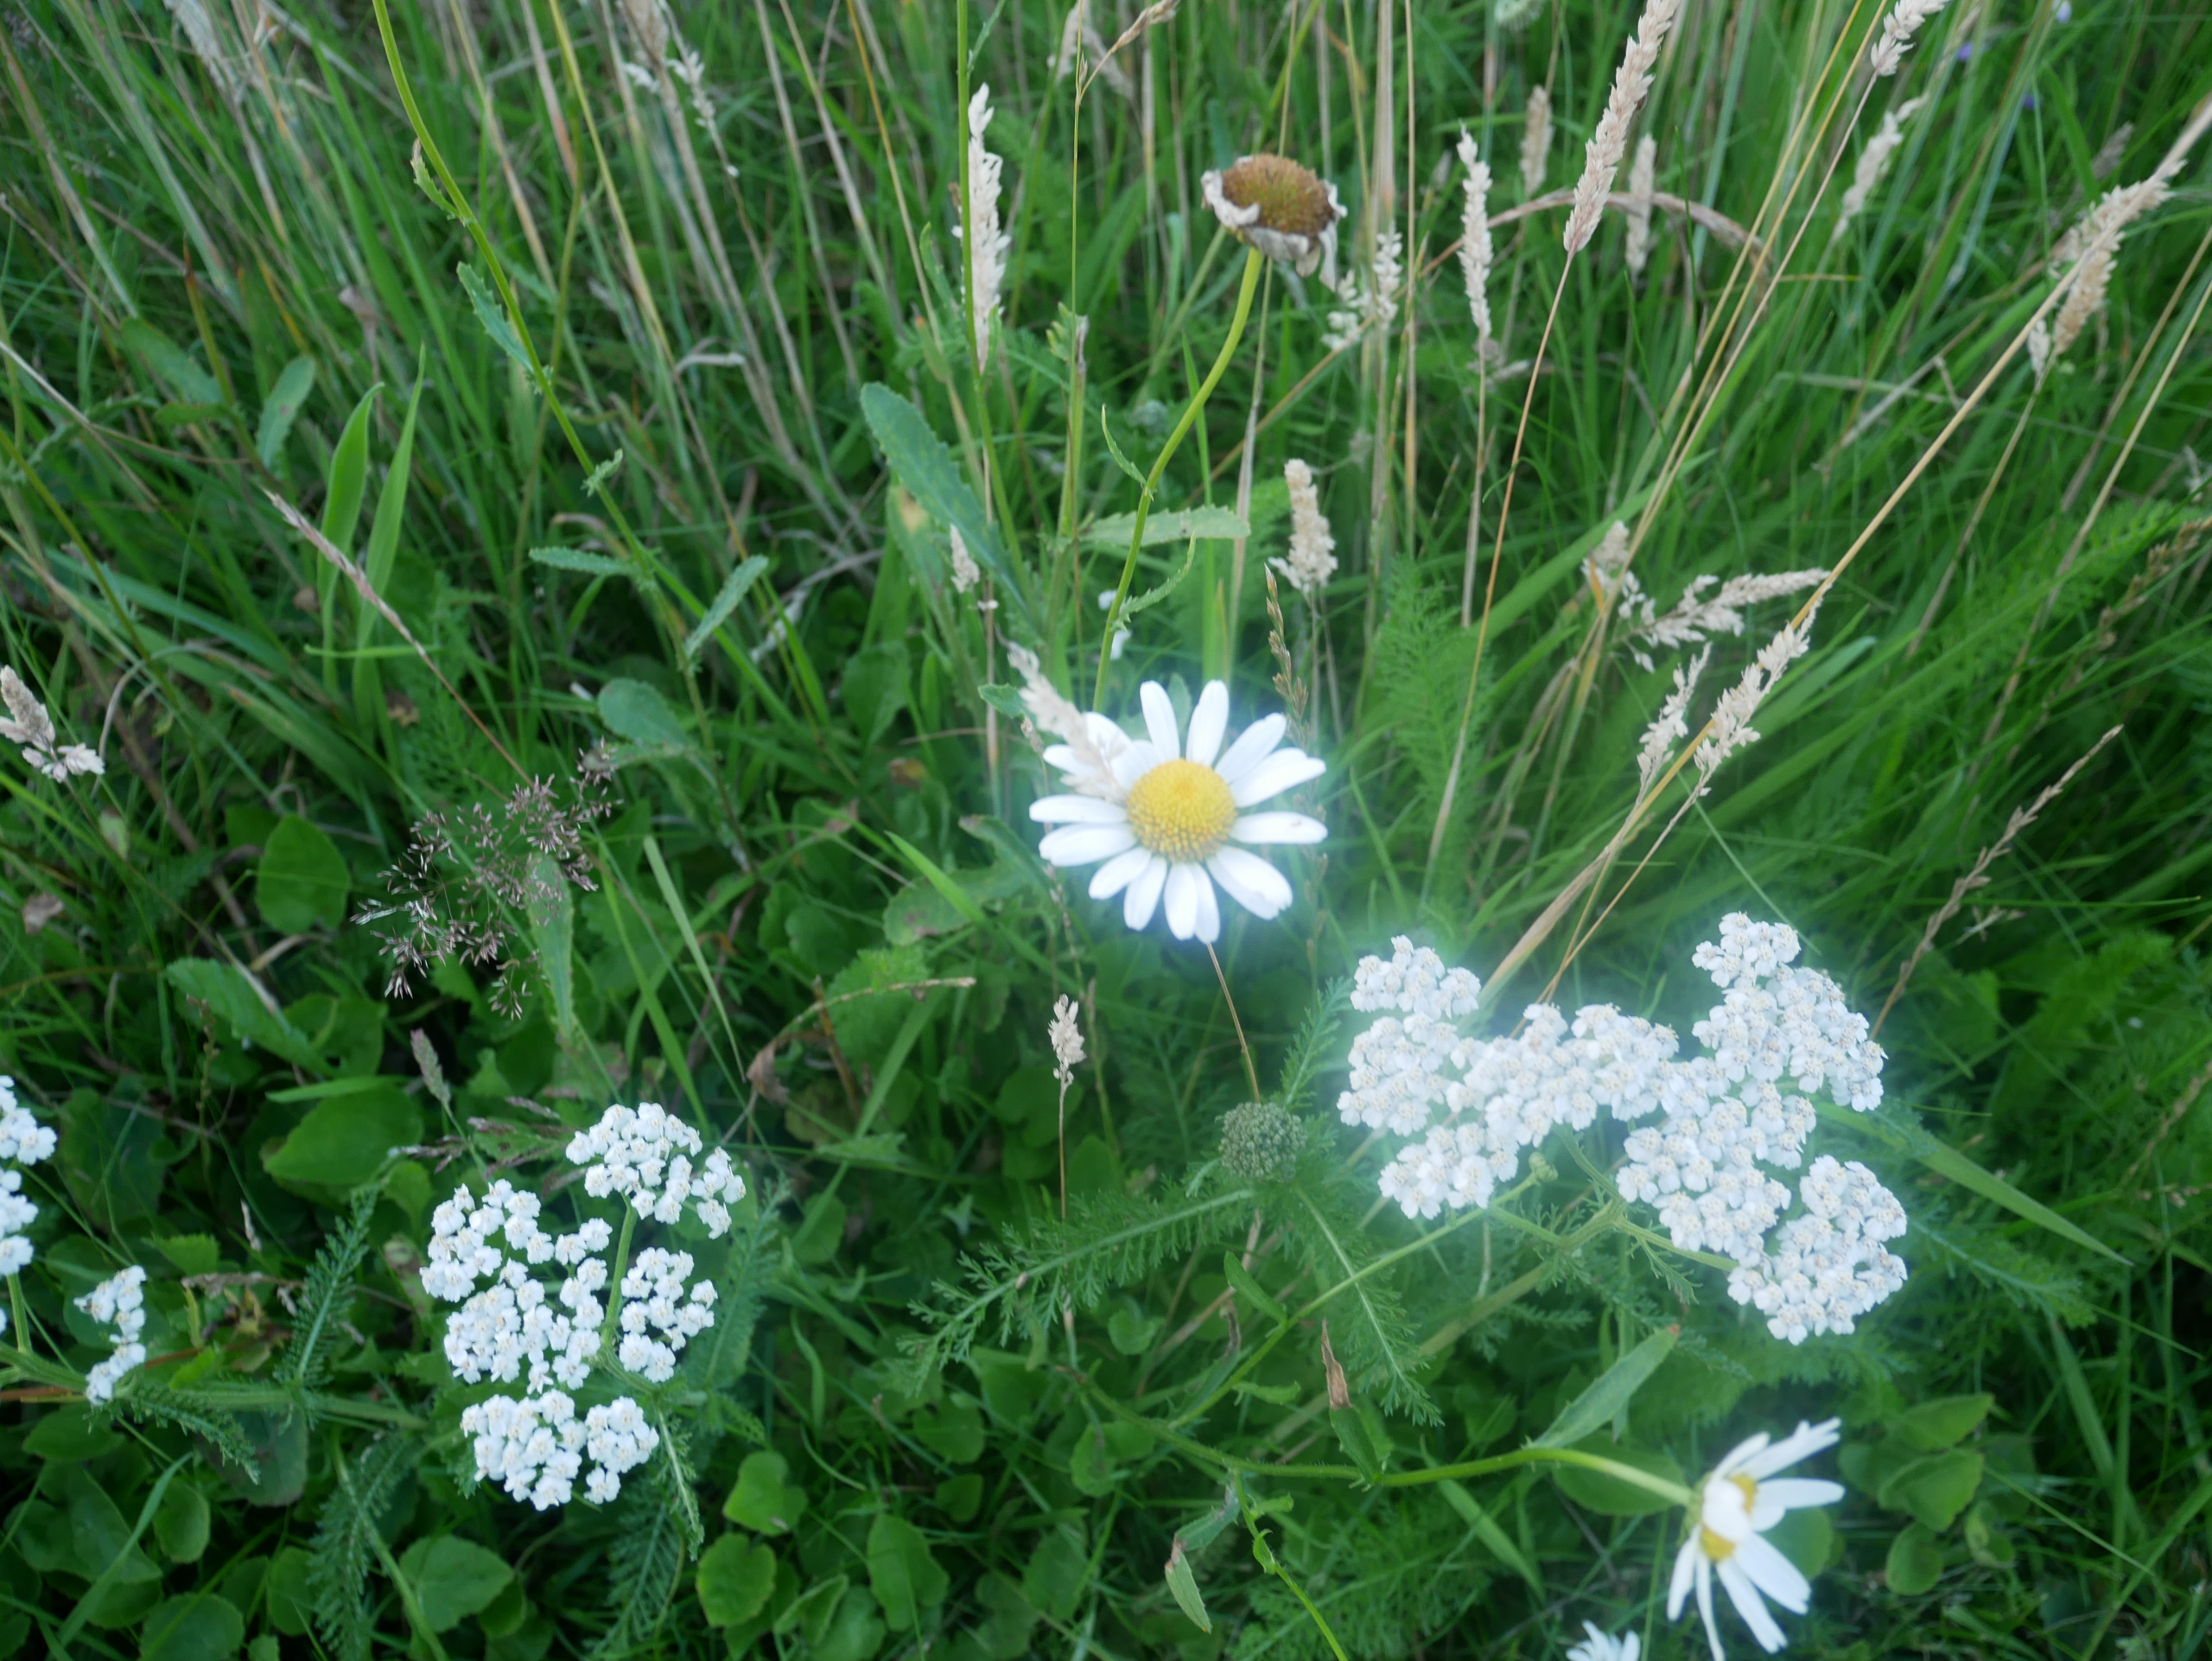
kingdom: Plantae
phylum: Tracheophyta
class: Magnoliopsida
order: Asterales
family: Asteraceae
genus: Leucanthemum
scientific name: Leucanthemum vulgare
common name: Hvid okseøje
